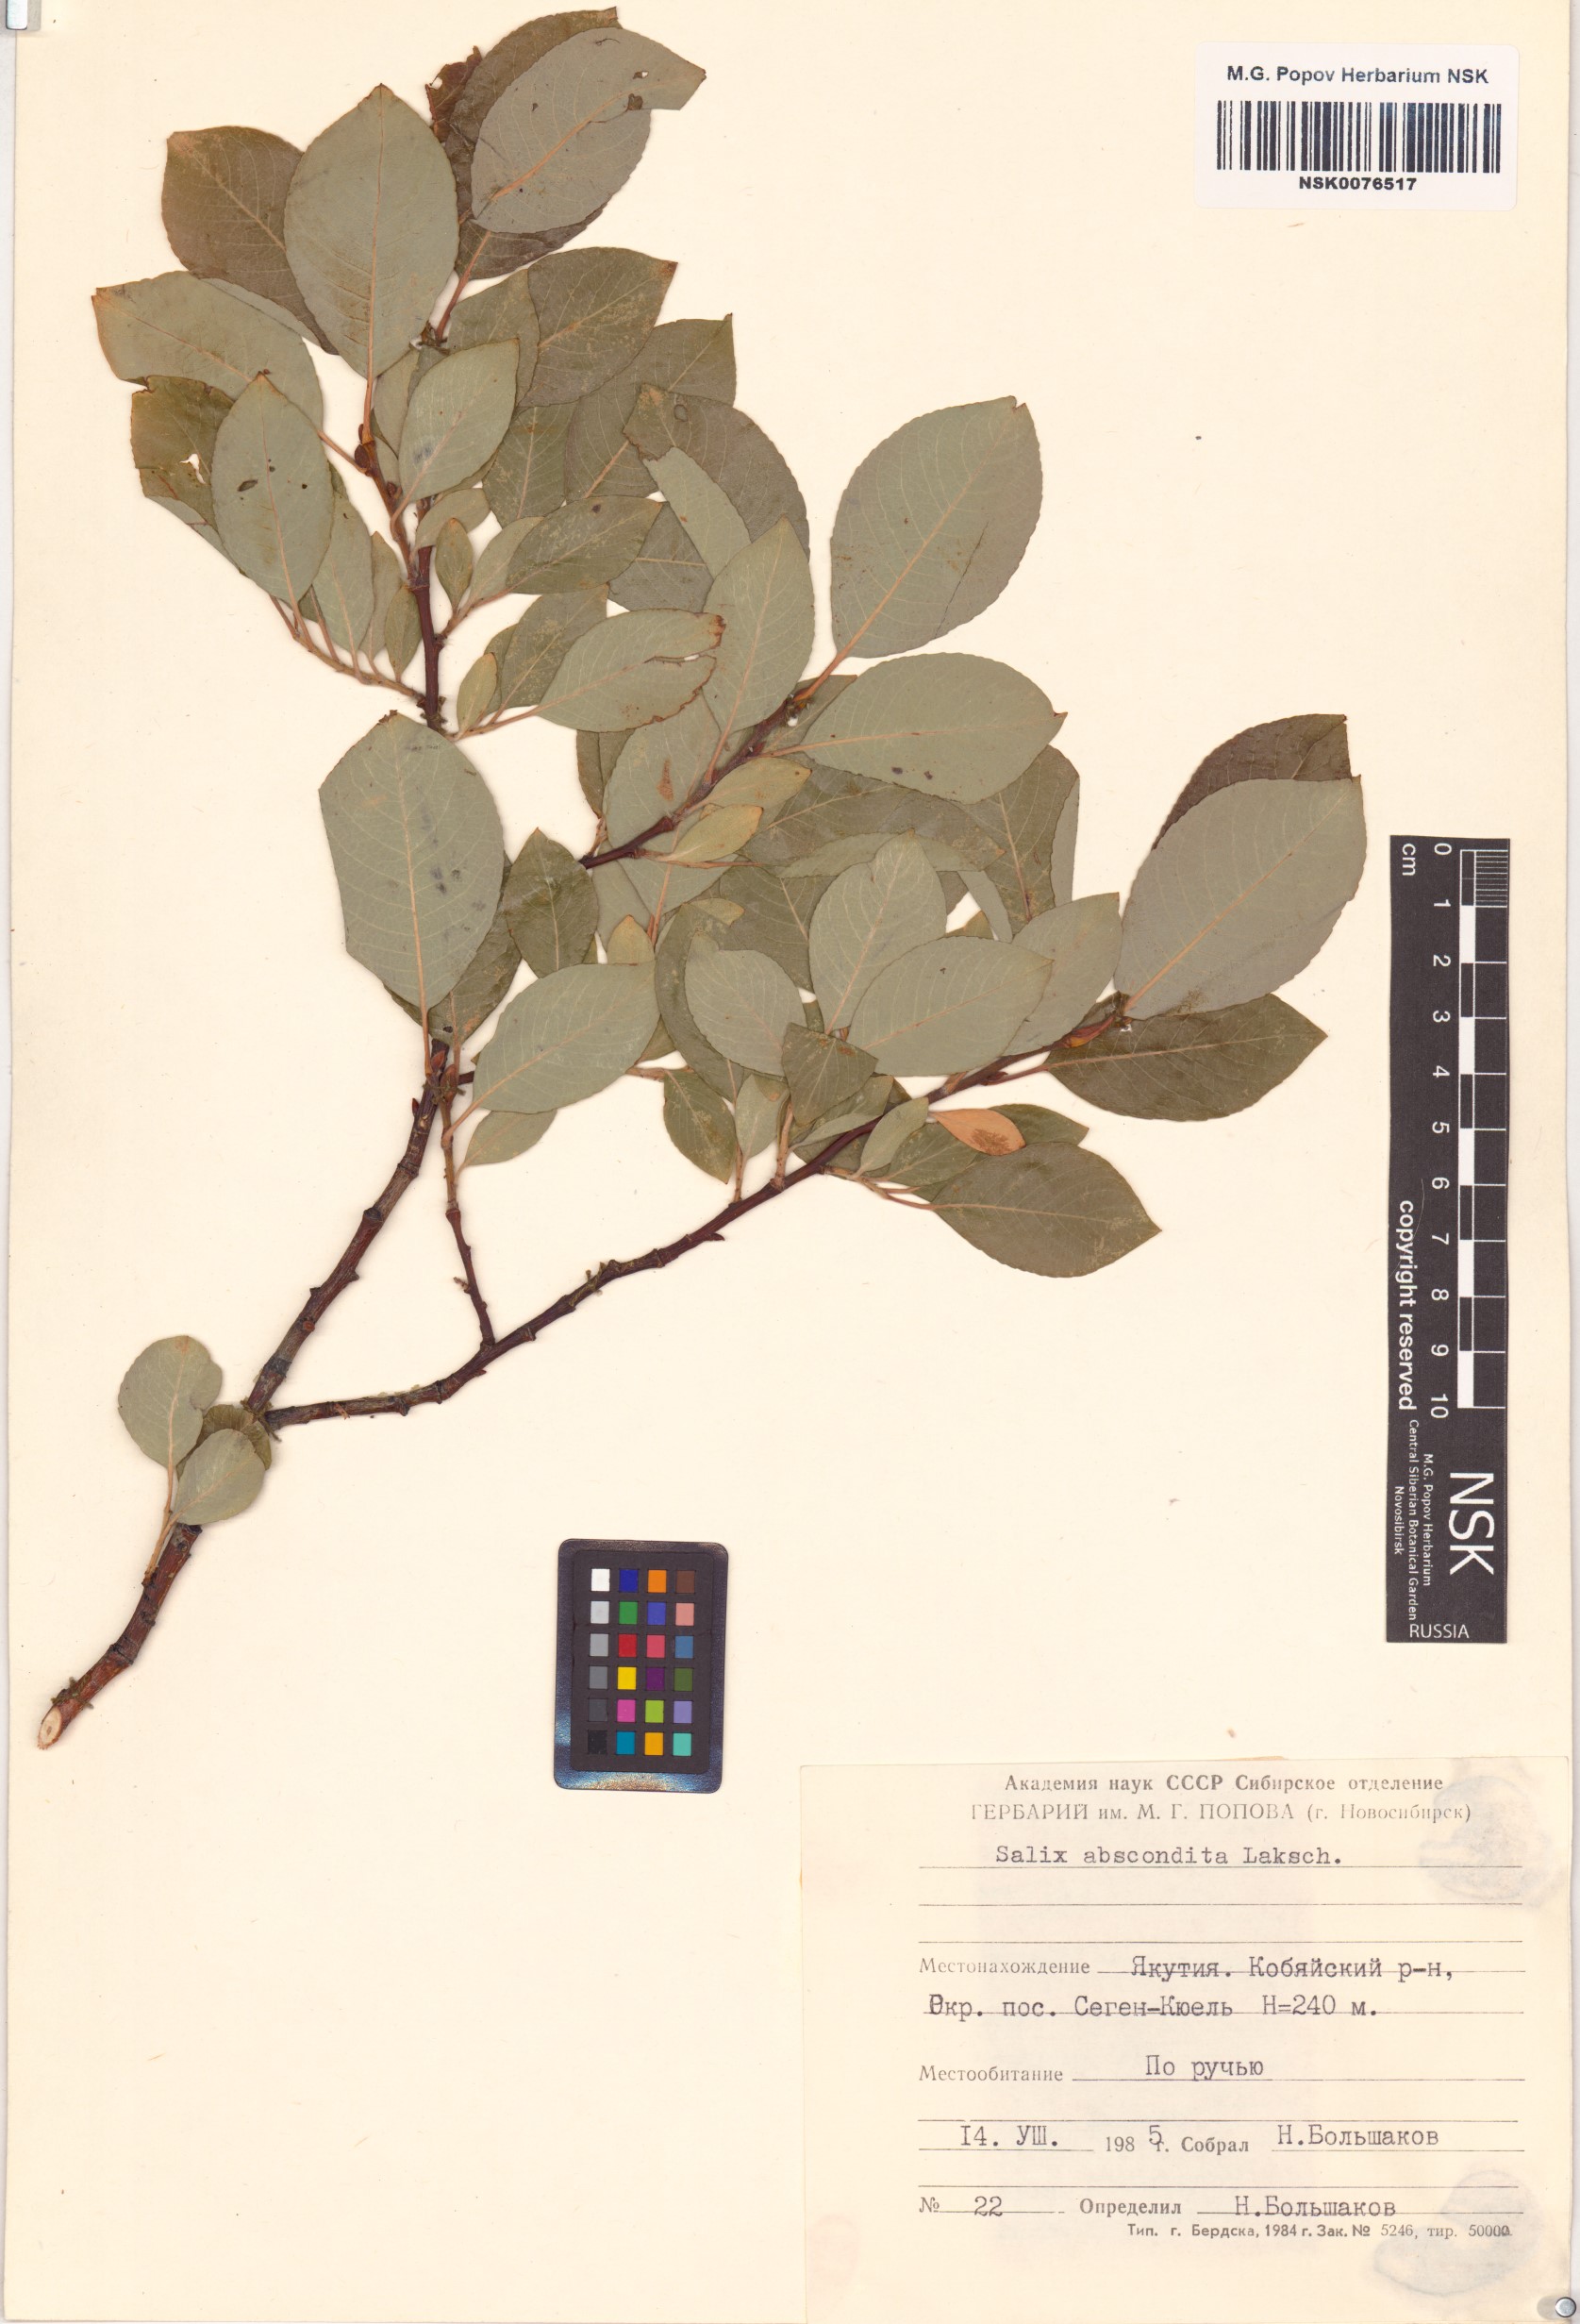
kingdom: Plantae
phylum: Tracheophyta
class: Magnoliopsida
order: Malpighiales
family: Salicaceae
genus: Salix
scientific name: Salix abscondita
